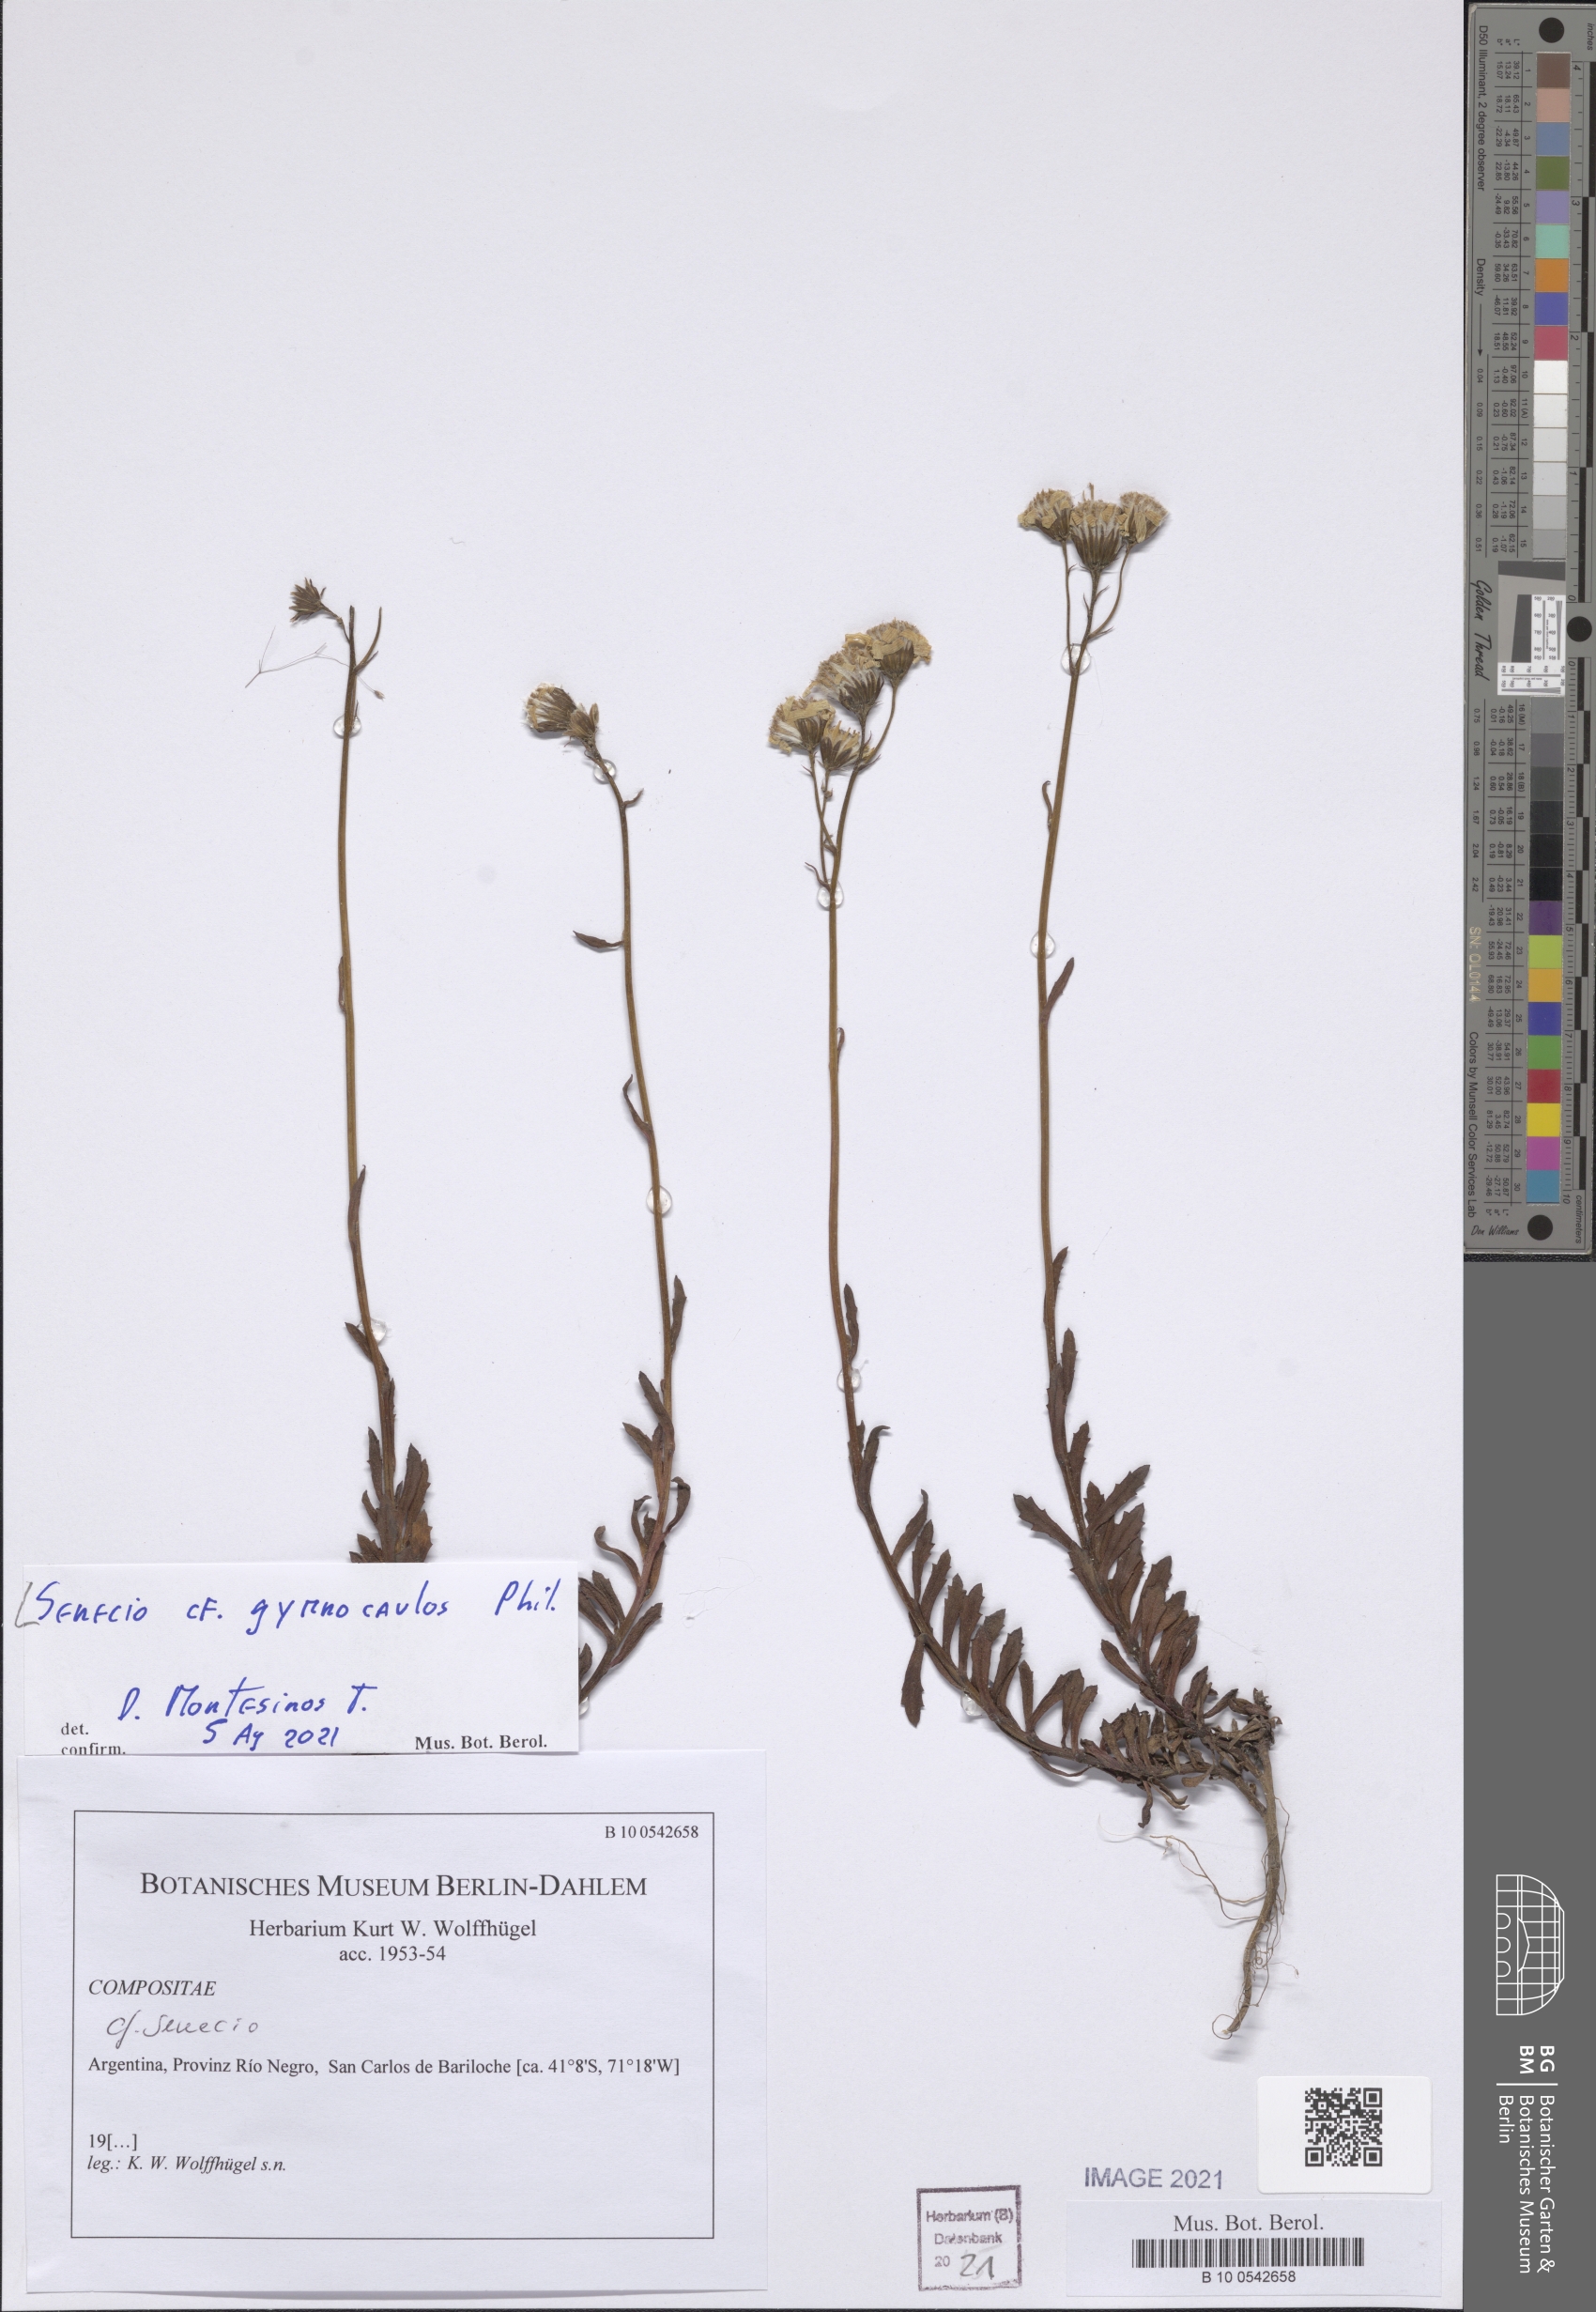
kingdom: Plantae
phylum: Tracheophyta
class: Magnoliopsida
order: Asterales
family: Asteraceae
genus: Senecio
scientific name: Senecio kingii
